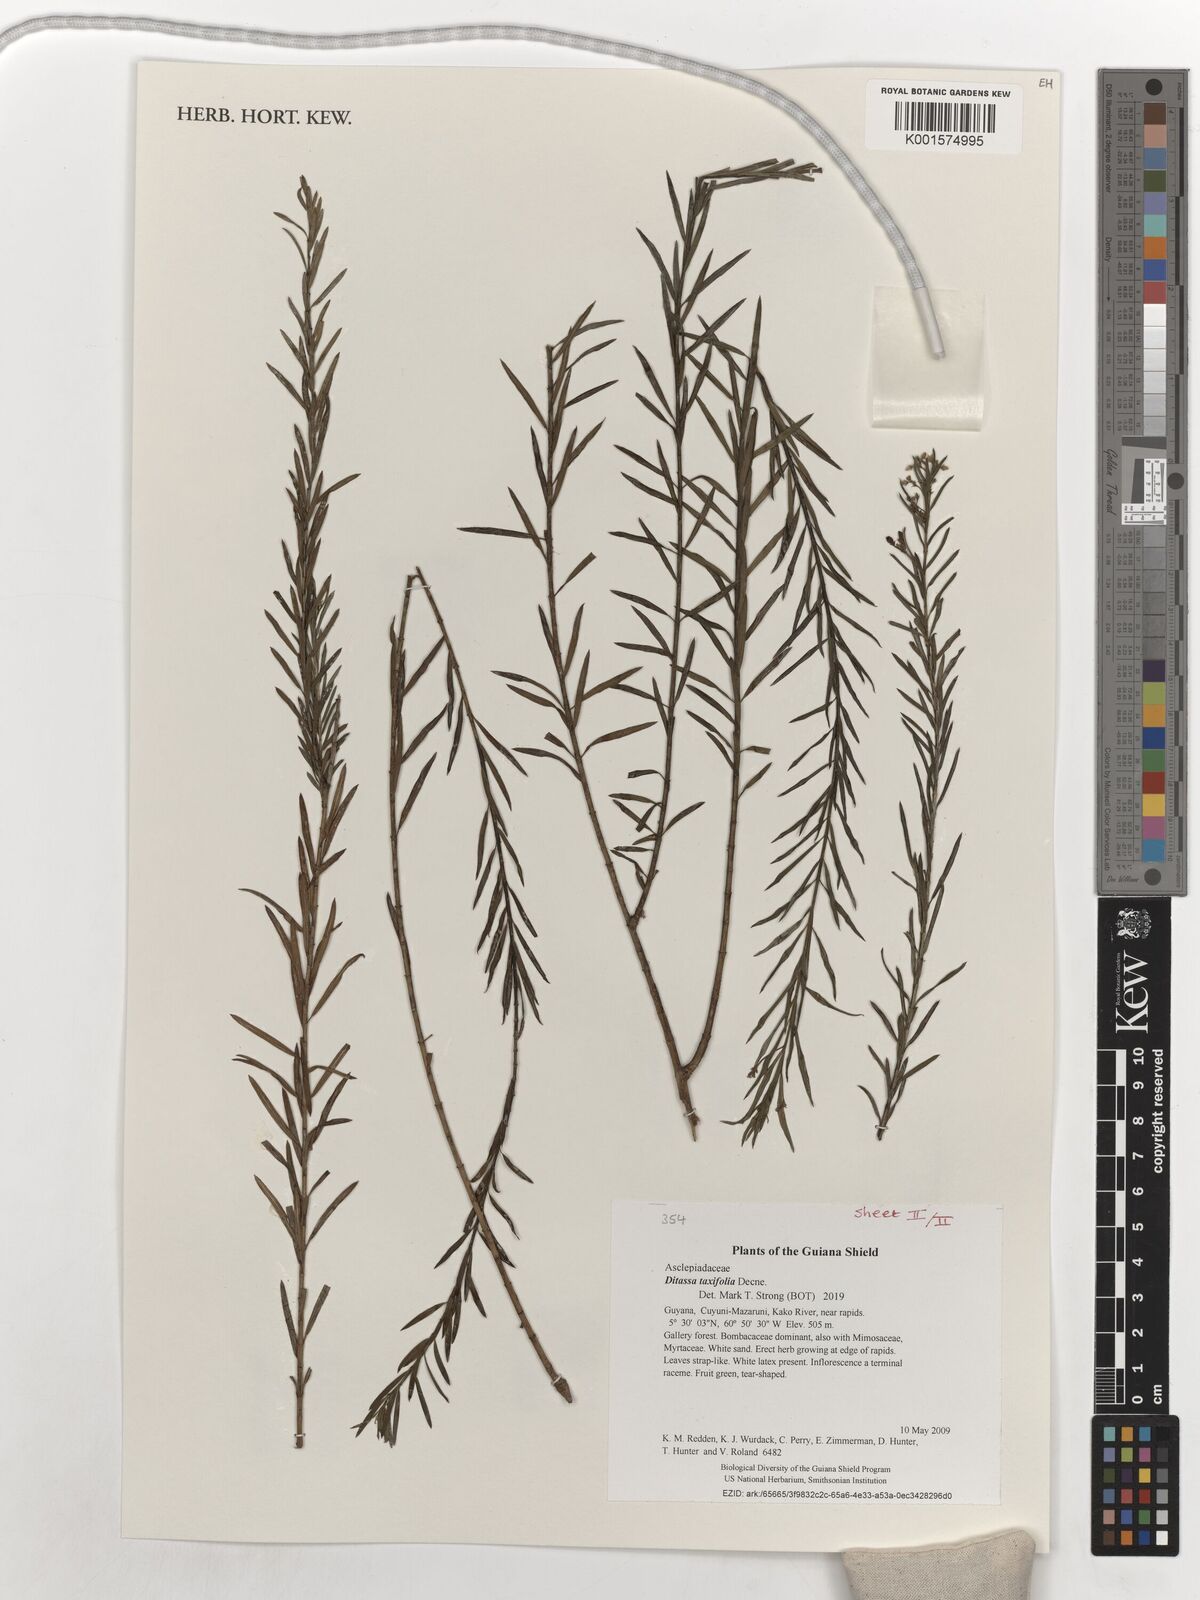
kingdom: Plantae
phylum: Tracheophyta
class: Magnoliopsida
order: Gentianales
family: Apocynaceae
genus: Ditassa
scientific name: Ditassa taxifolia
